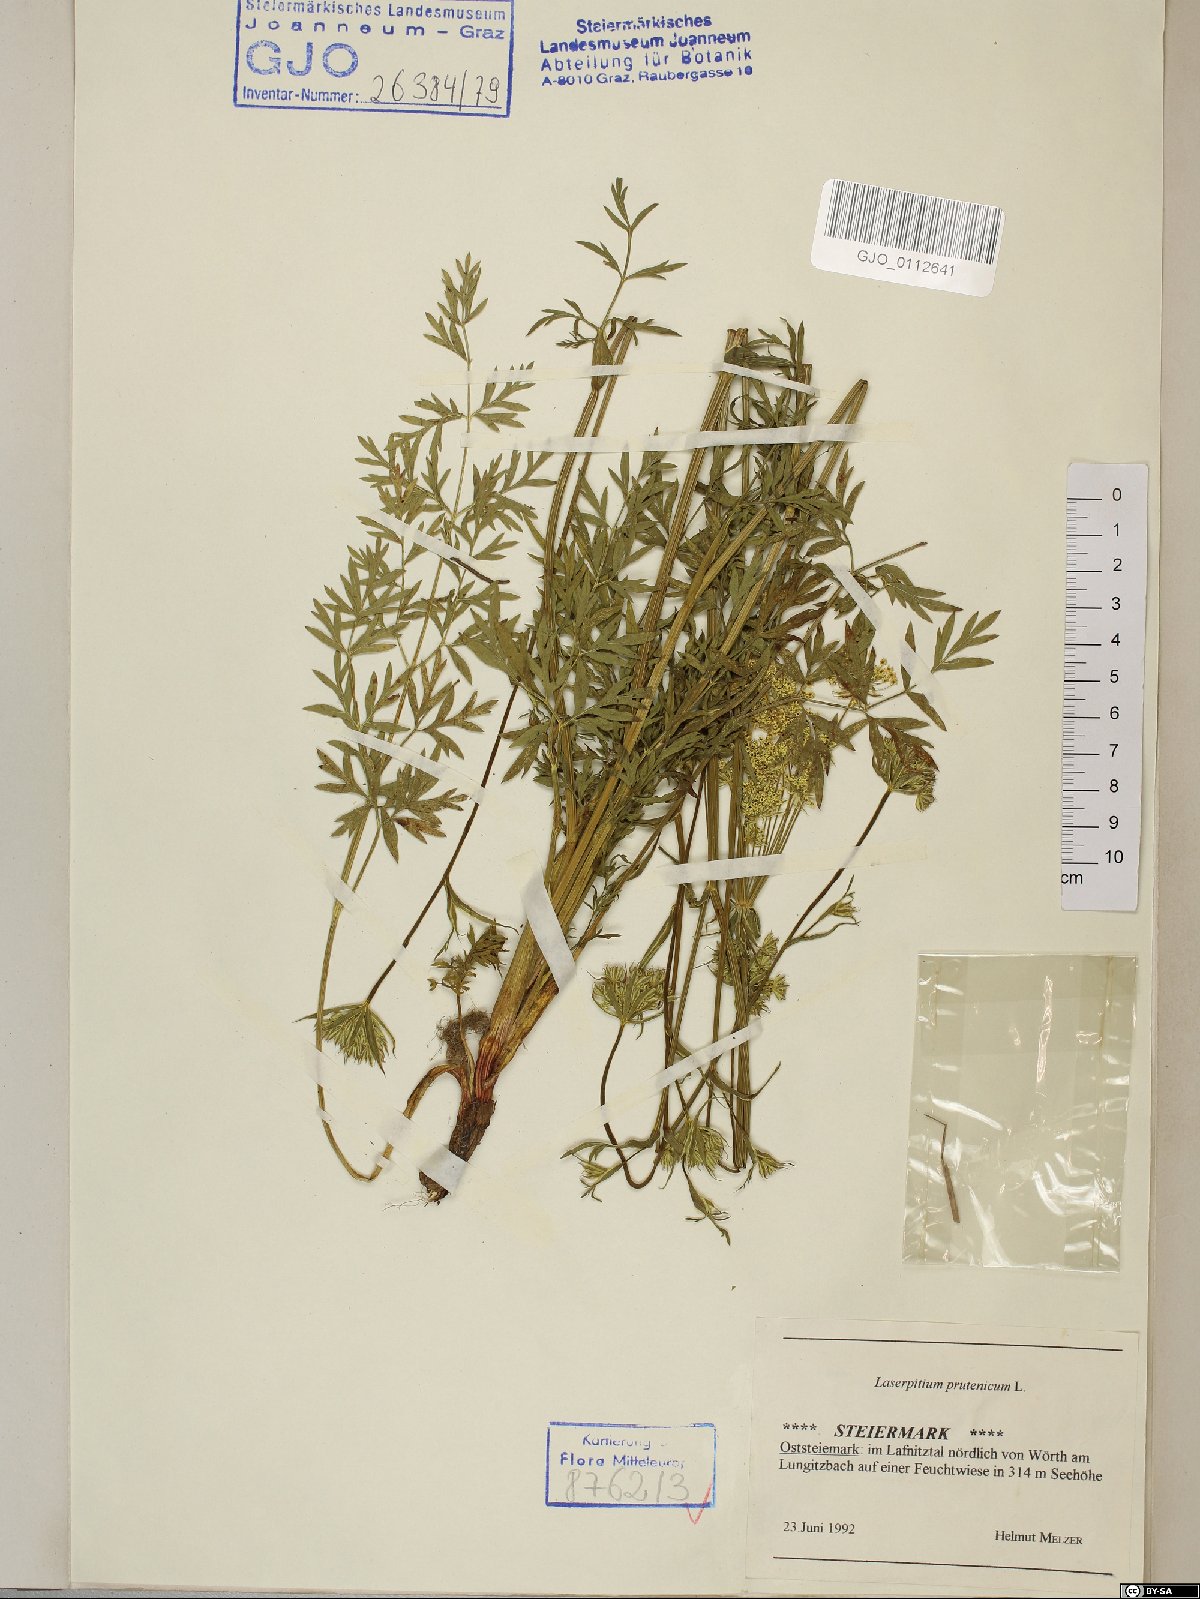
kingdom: Plantae
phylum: Tracheophyta
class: Magnoliopsida
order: Apiales
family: Apiaceae
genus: Silphiodaucus
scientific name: Silphiodaucus prutenicus
